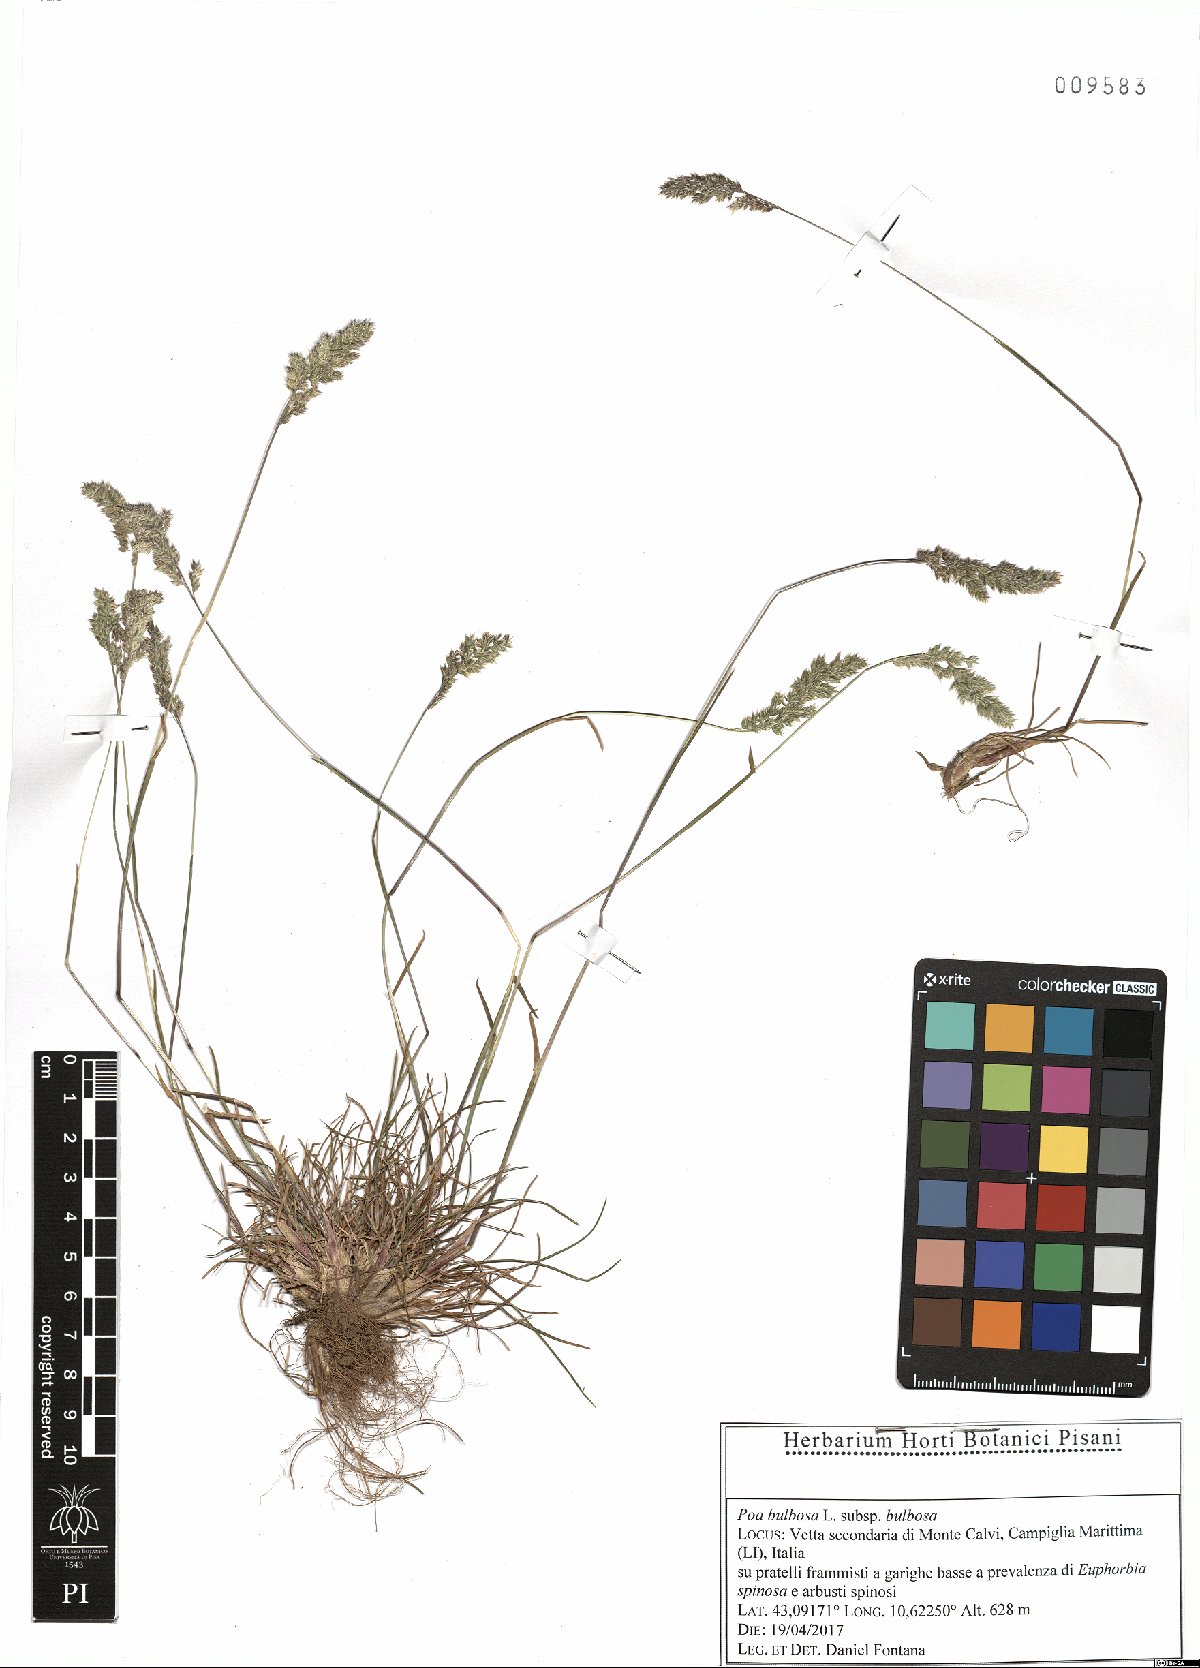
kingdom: Plantae
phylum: Tracheophyta
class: Liliopsida
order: Poales
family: Poaceae
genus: Poa
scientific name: Poa bulbosa
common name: Bulbous bluegrass
